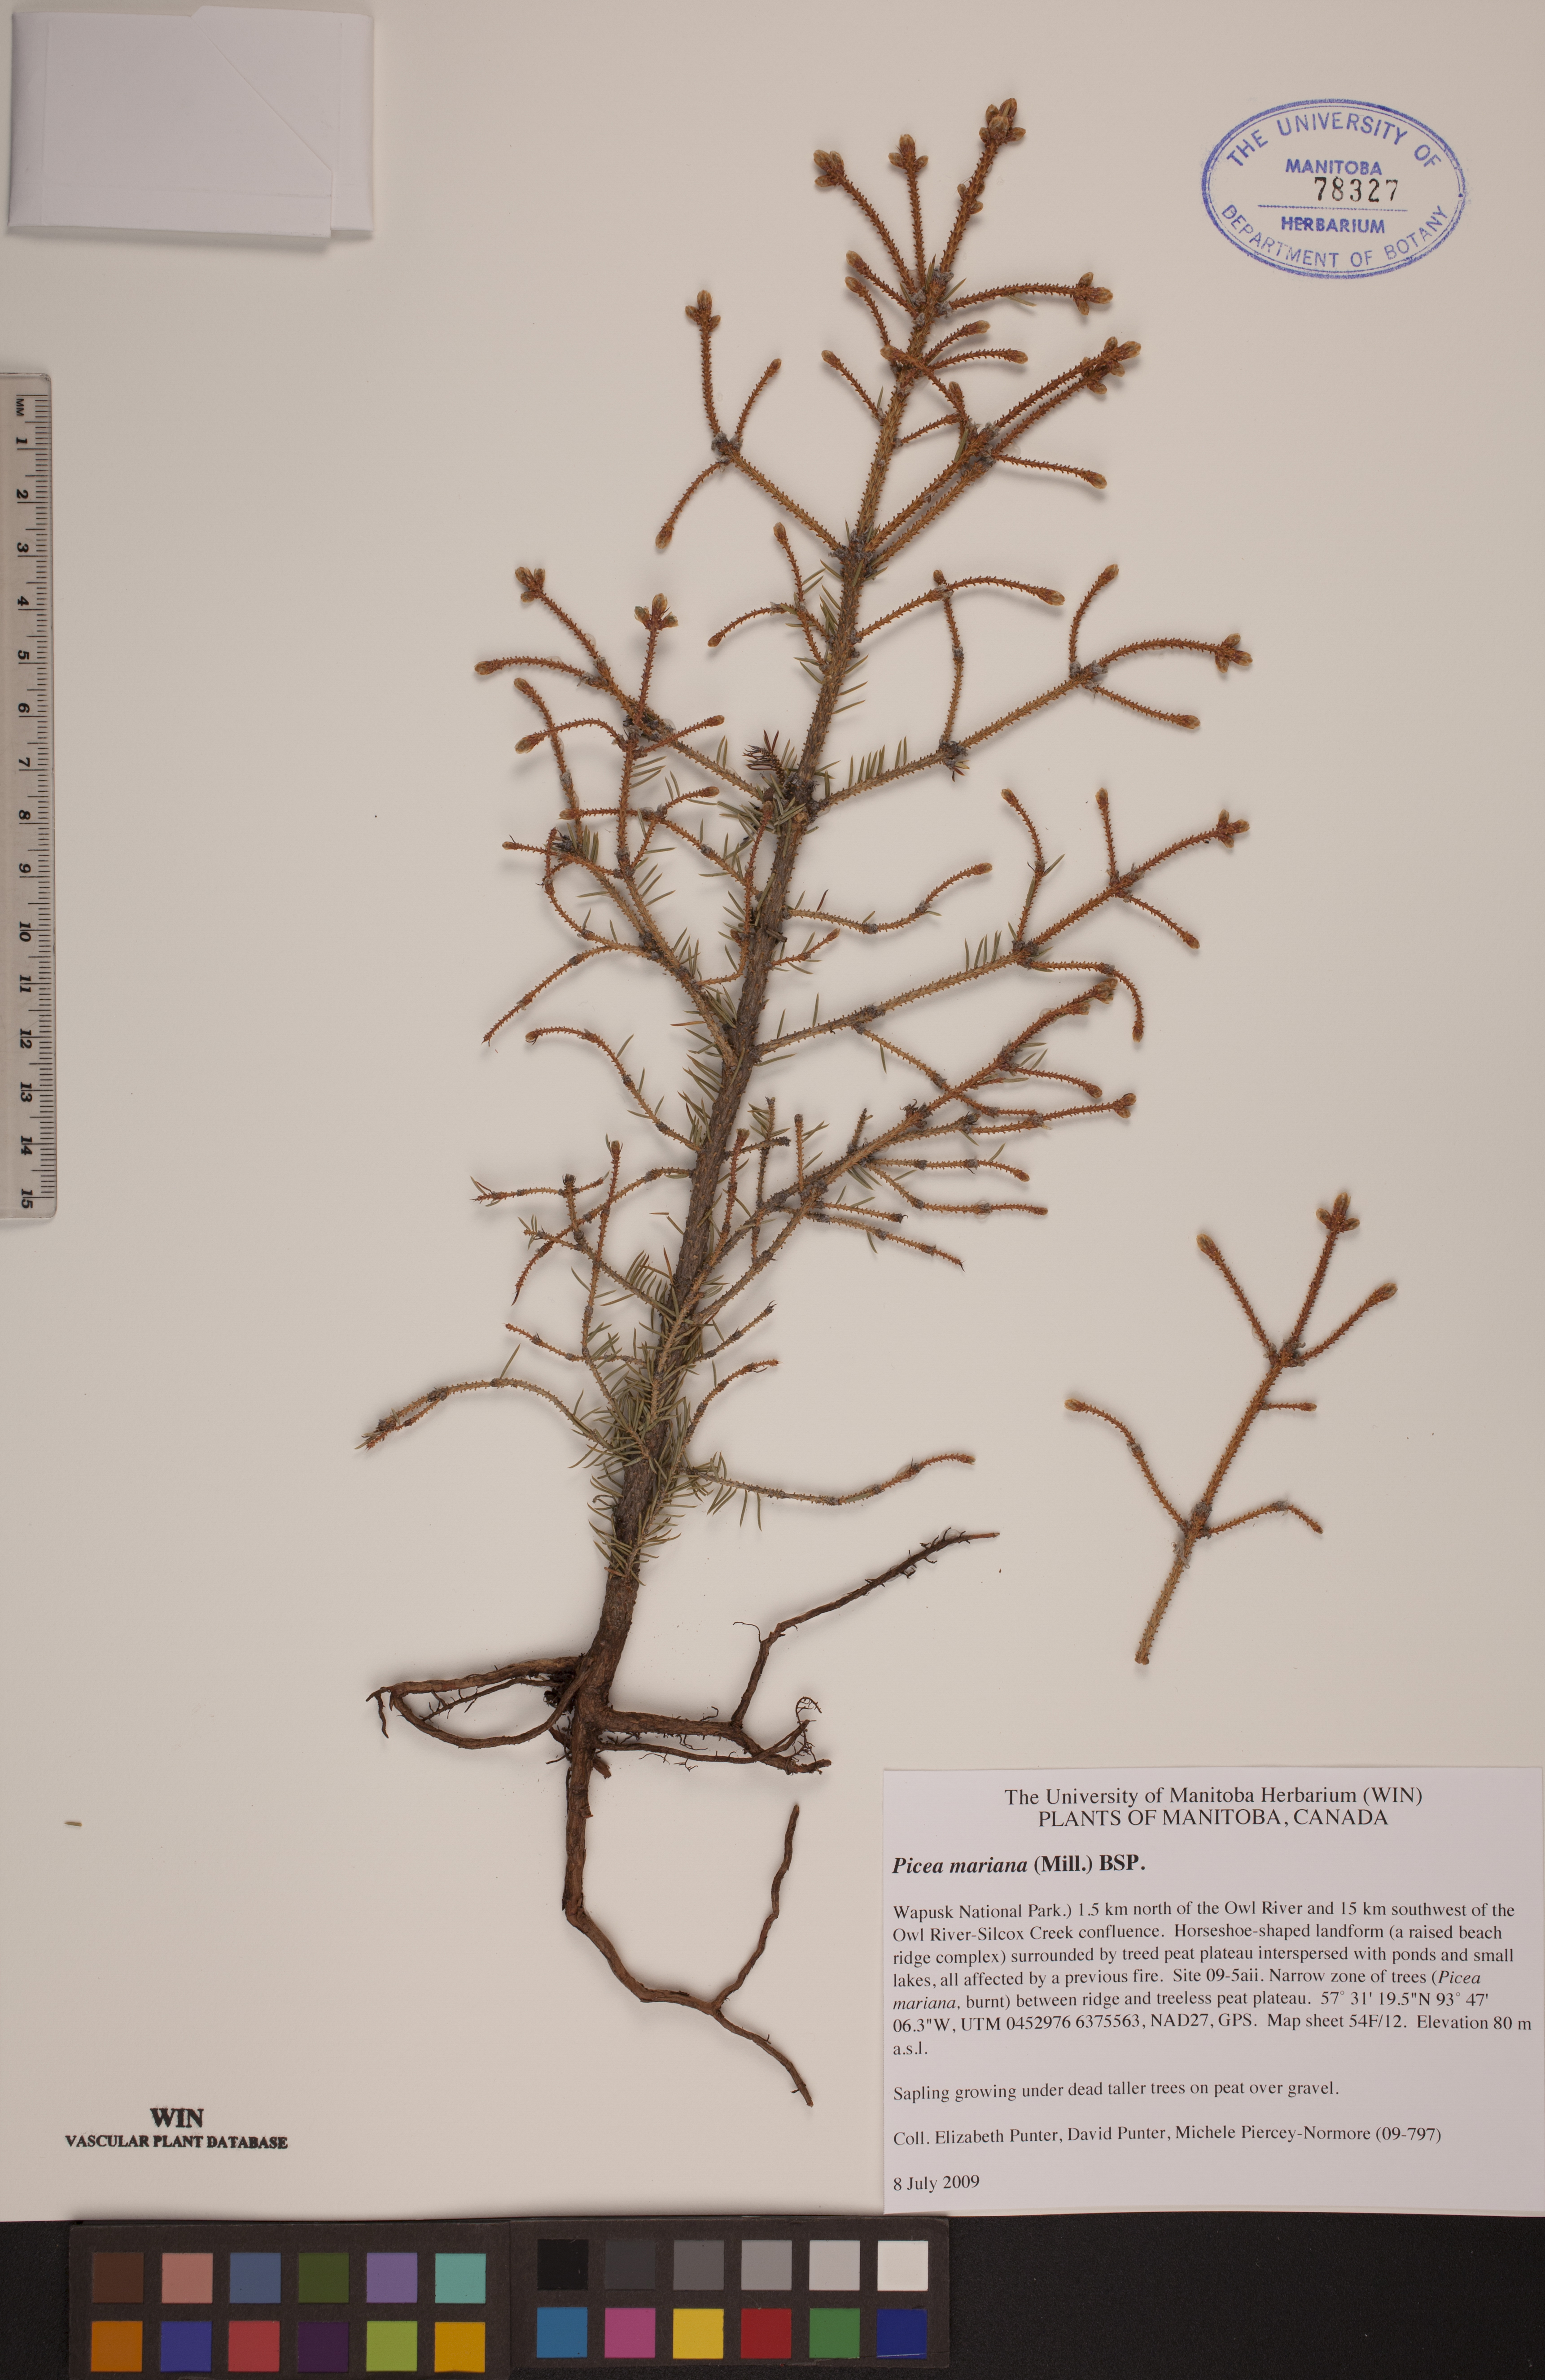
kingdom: Plantae
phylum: Tracheophyta
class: Pinopsida
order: Pinales
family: Pinaceae
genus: Picea
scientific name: Picea mariana
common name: Black spruce
